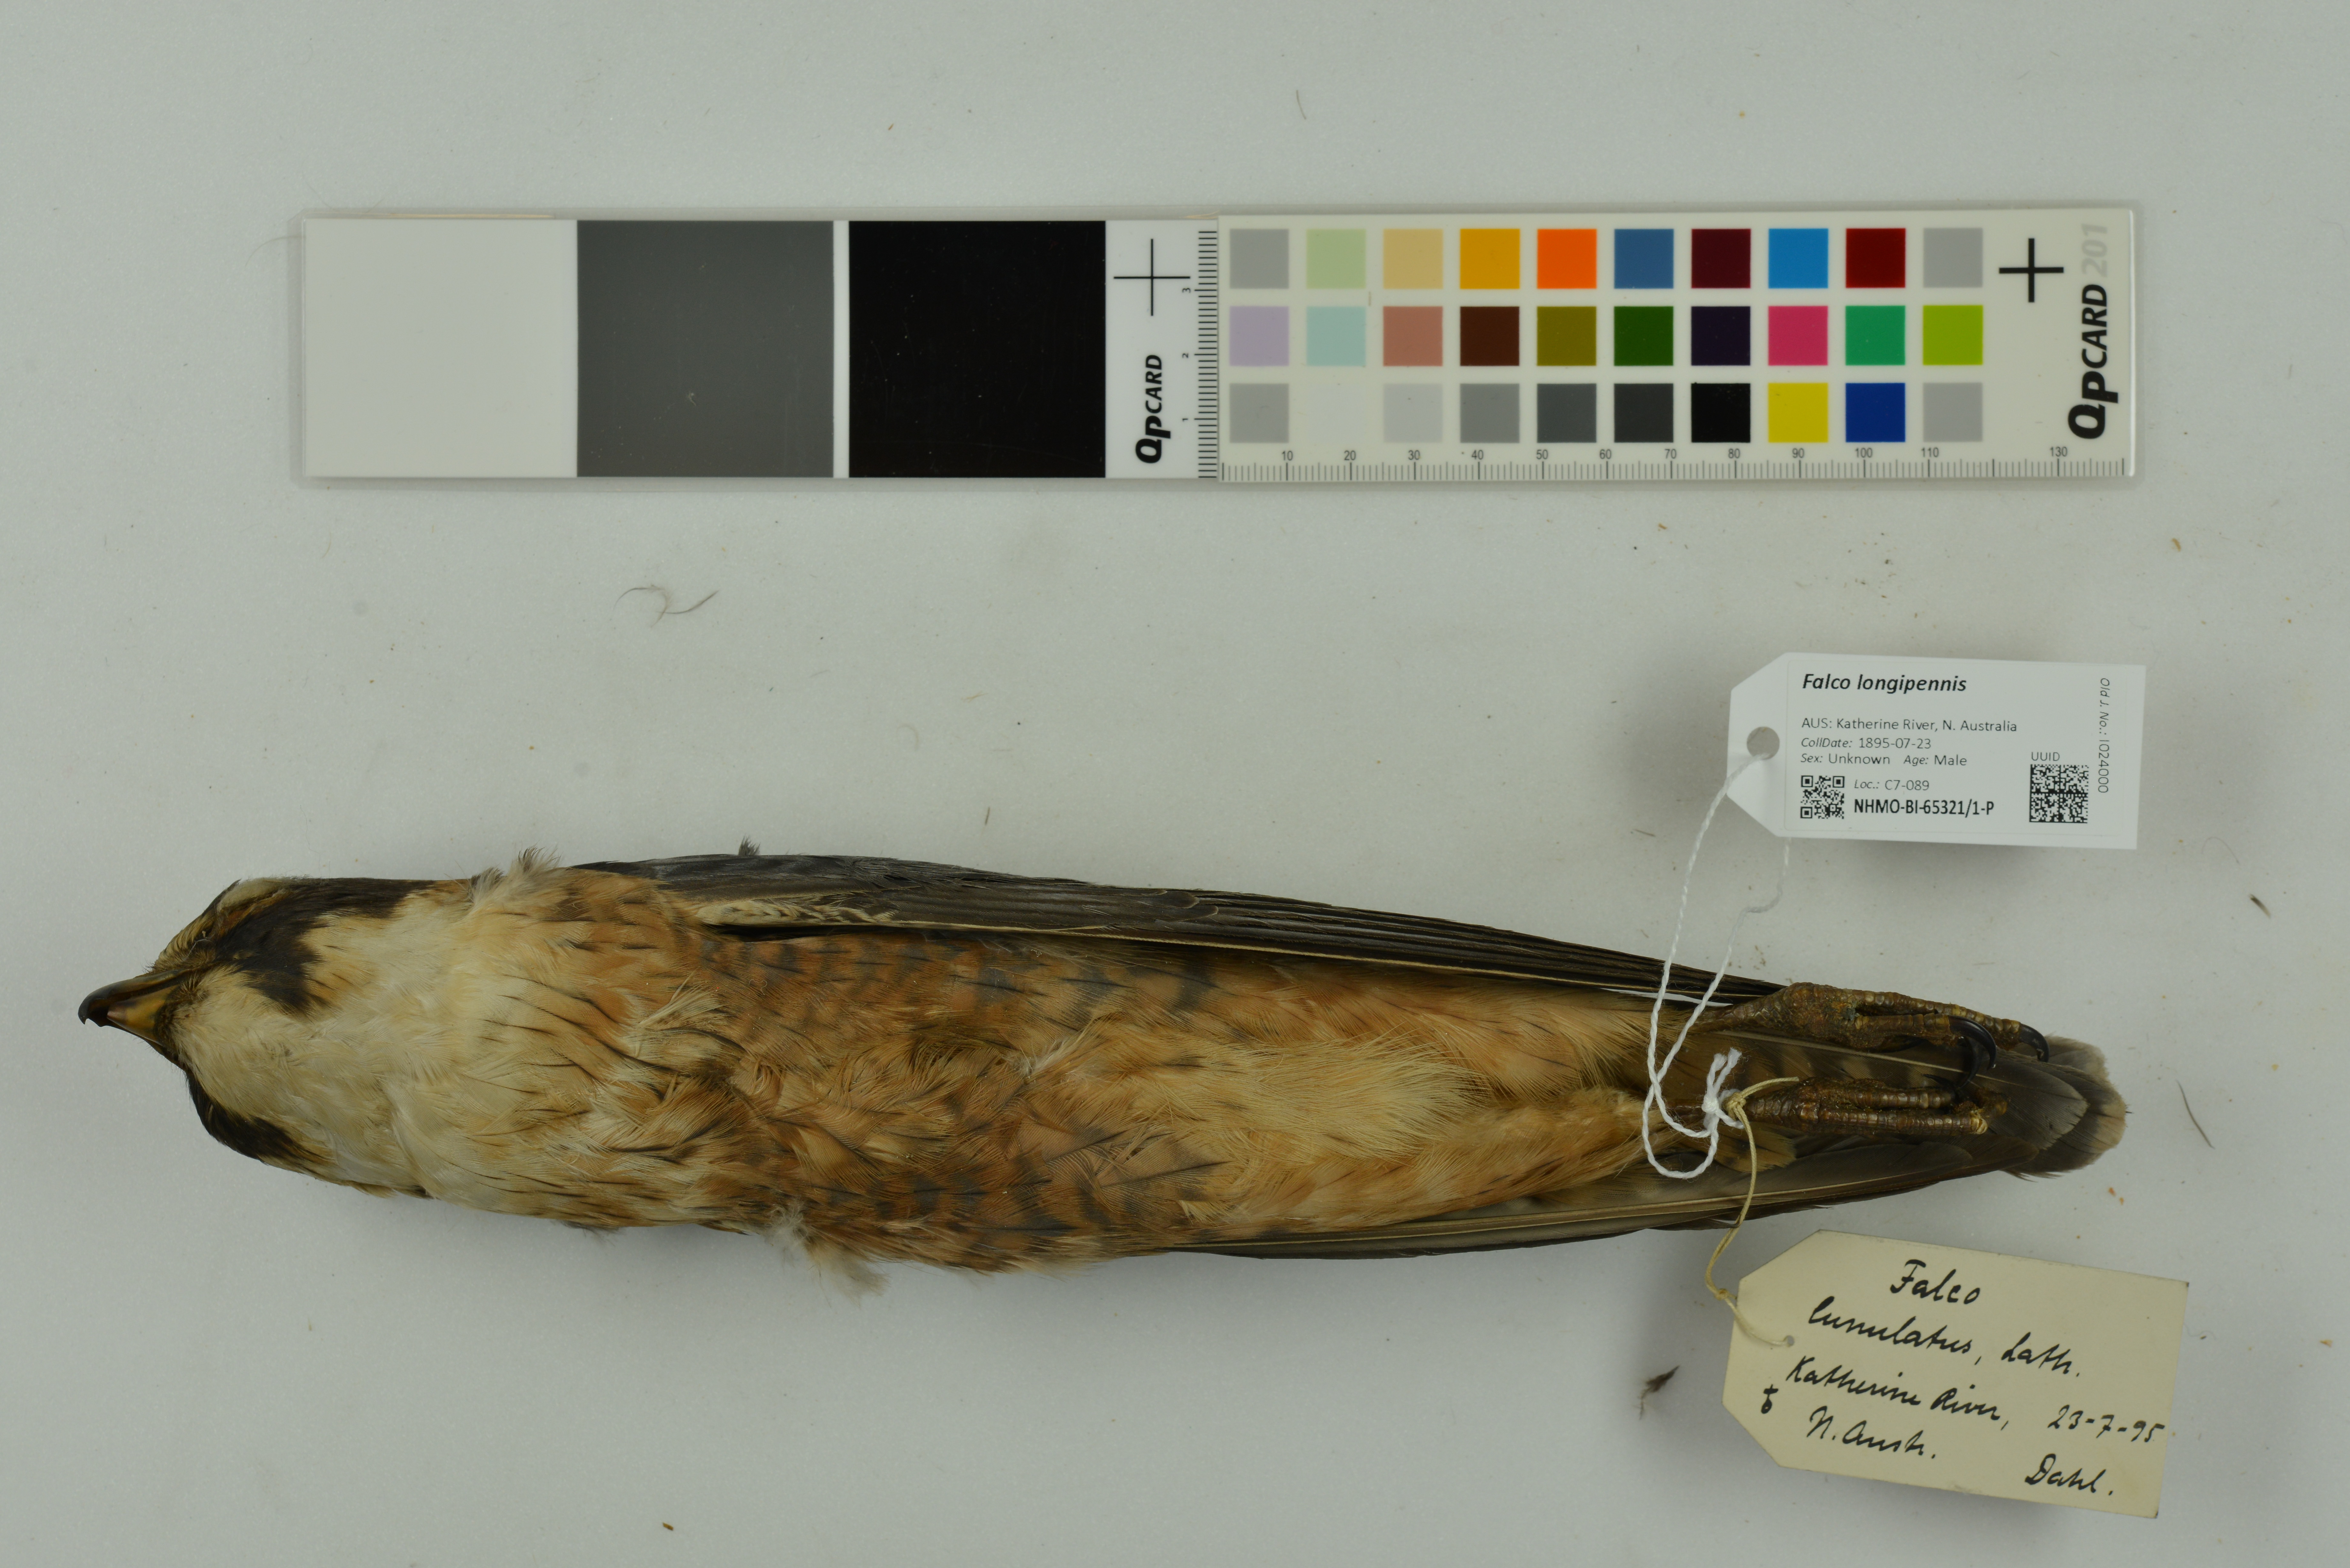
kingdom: Animalia
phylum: Chordata
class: Aves
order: Falconiformes
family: Falconidae
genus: Falco
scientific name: Falco longipennis
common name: Australian hobby
